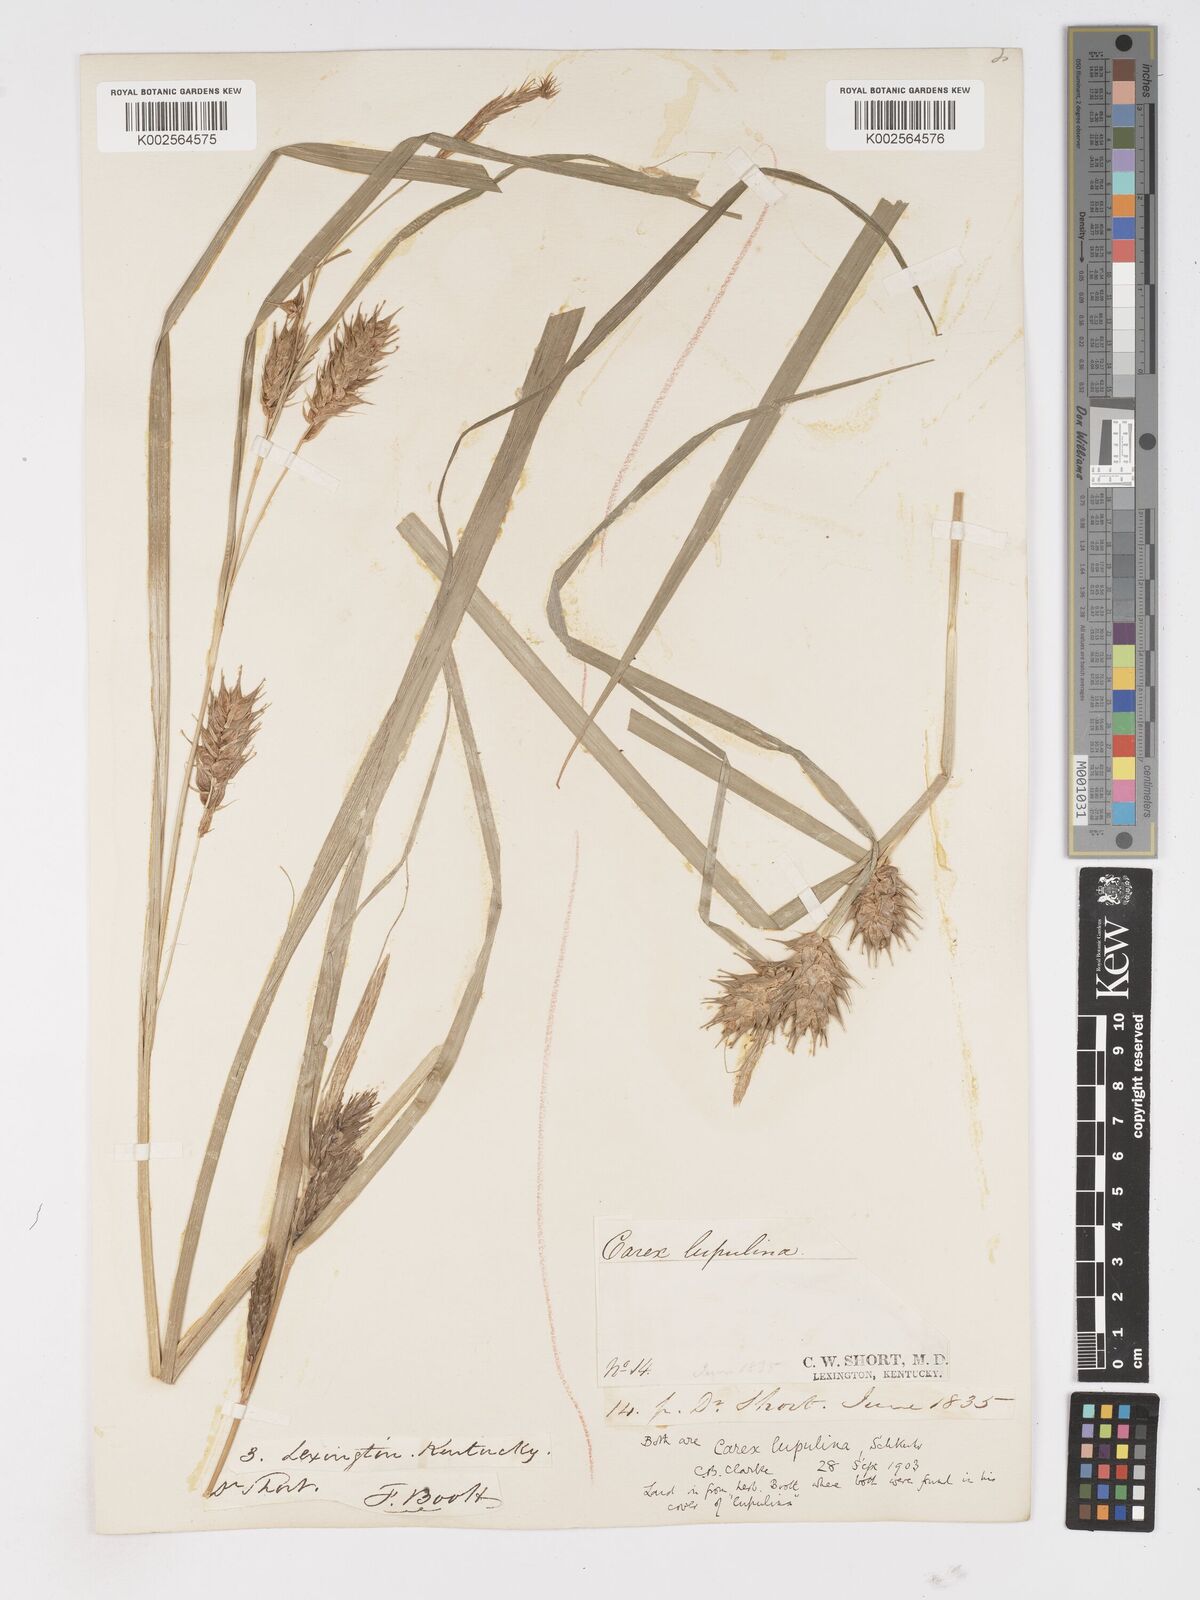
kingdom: Plantae
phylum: Tracheophyta
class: Liliopsida
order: Poales
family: Cyperaceae
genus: Carex
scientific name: Carex lupulina
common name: Hop sedge
